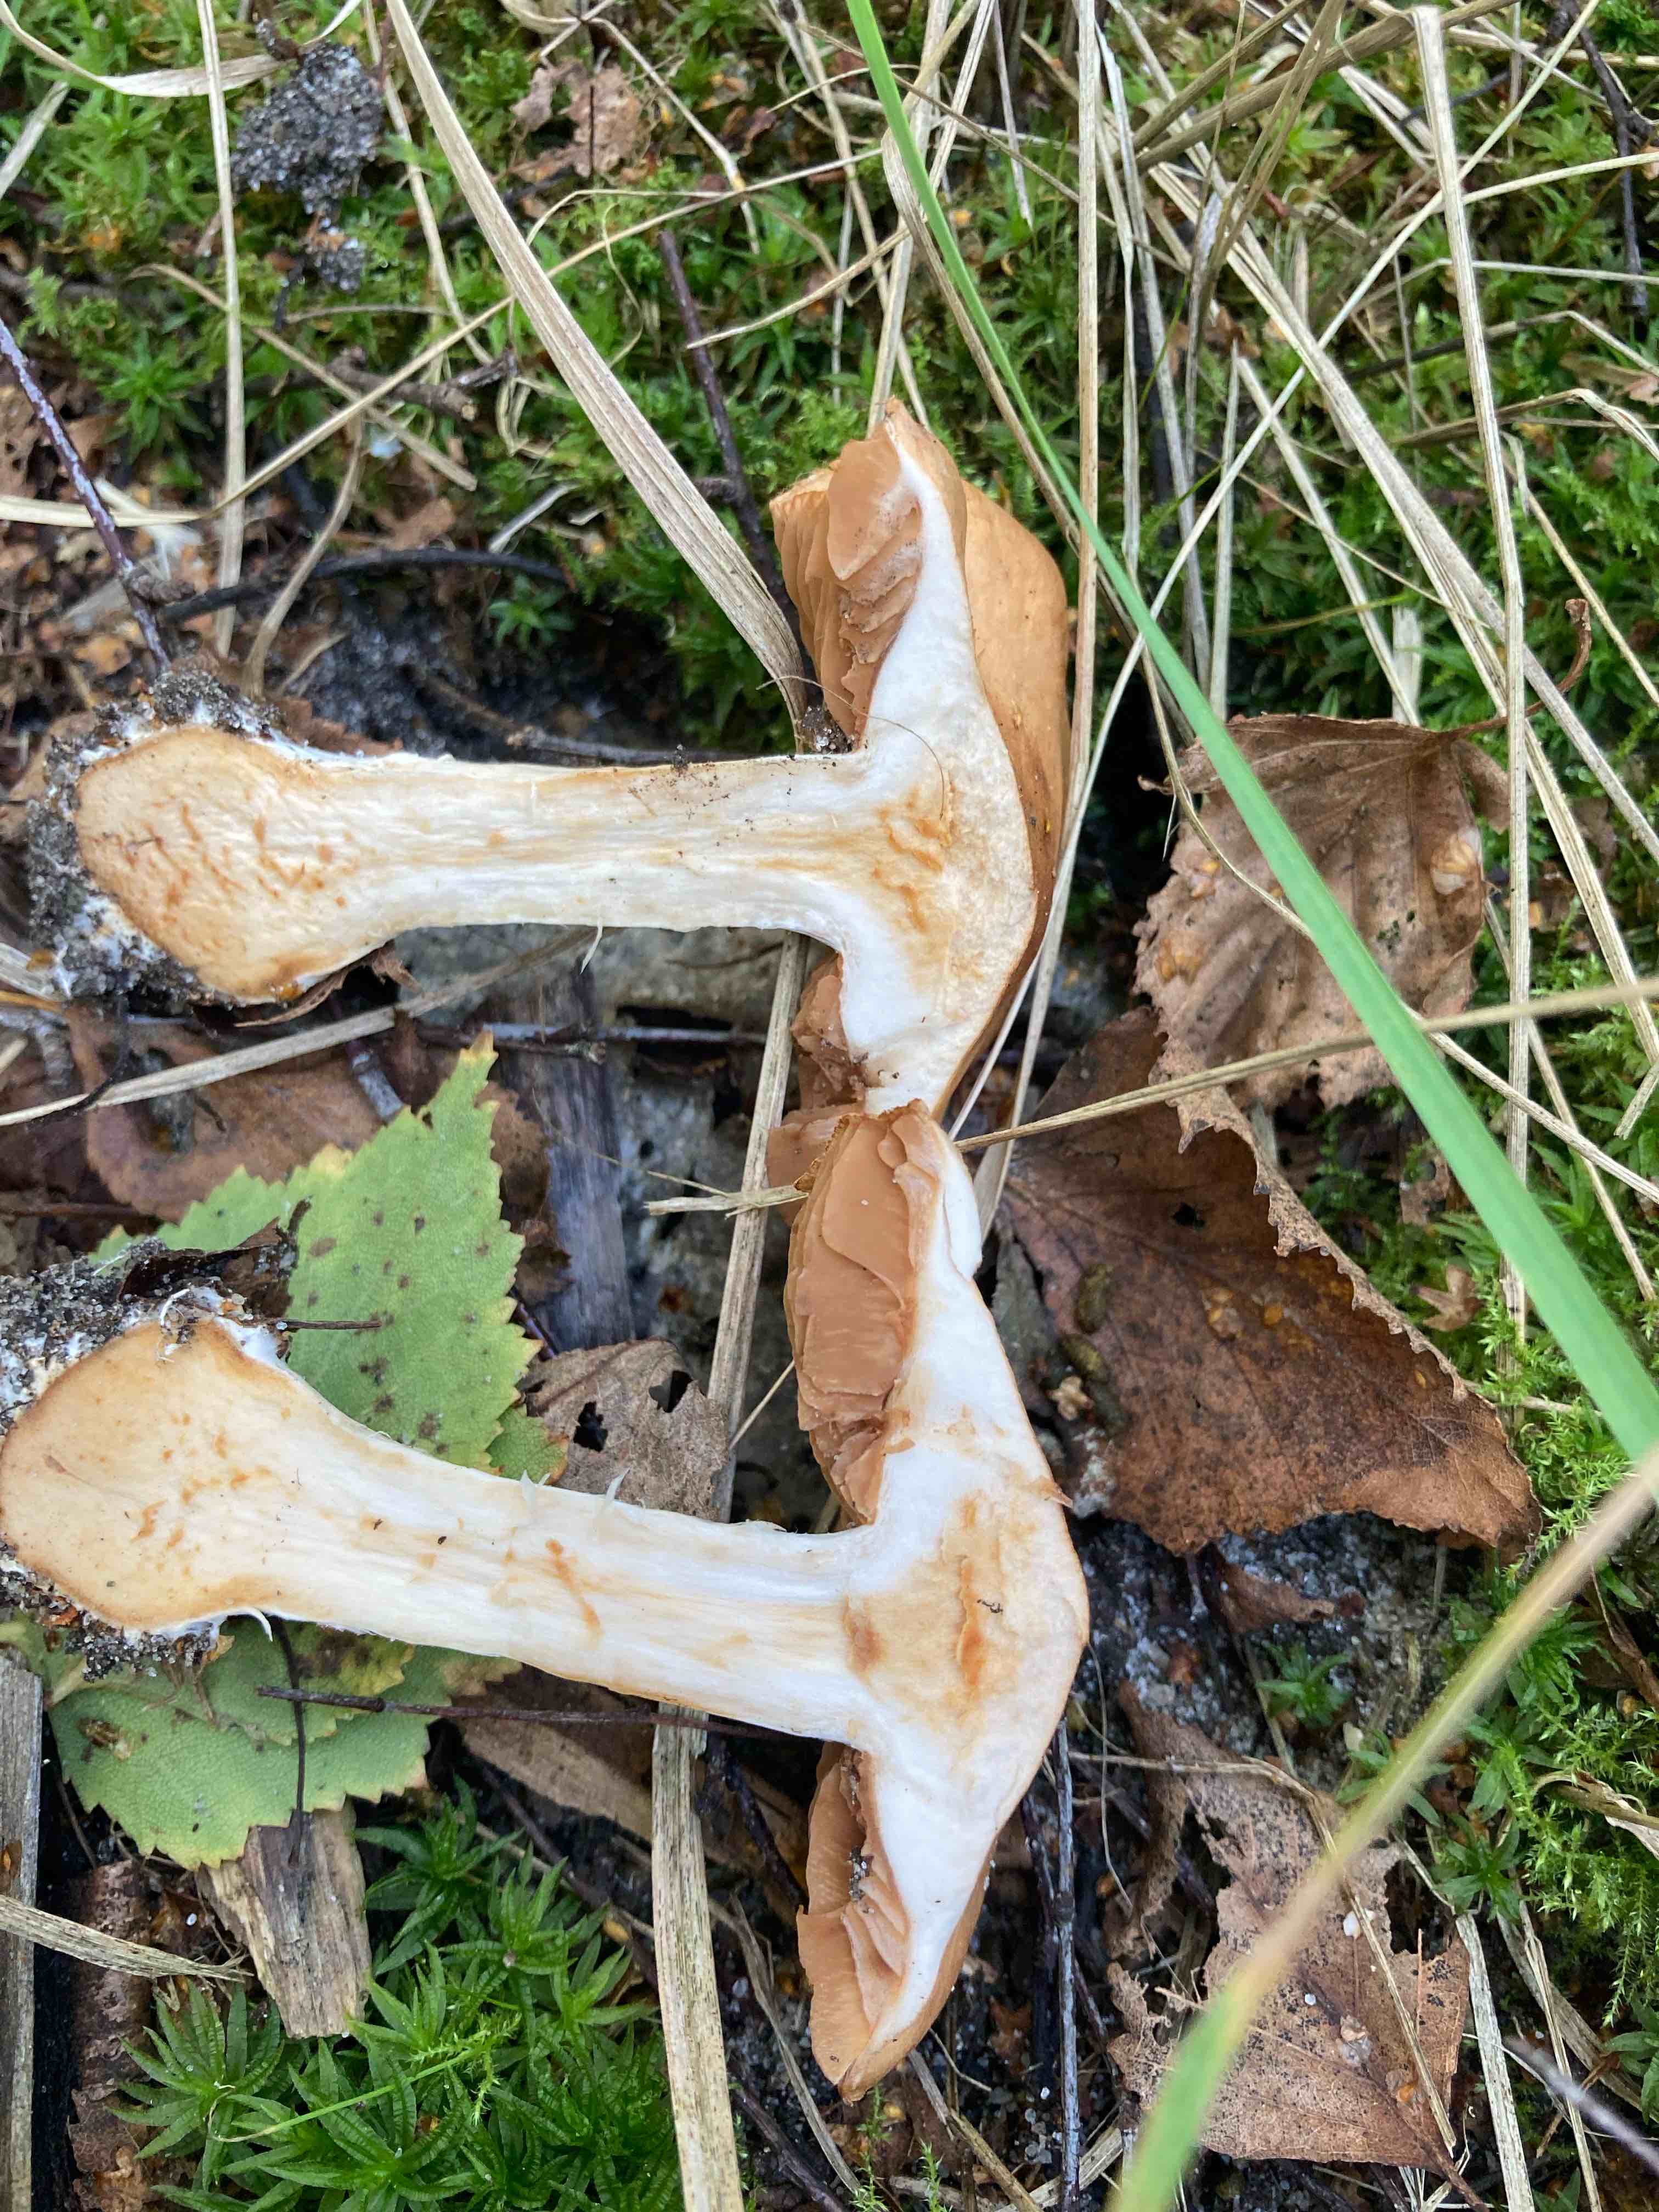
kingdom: Fungi
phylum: Basidiomycota
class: Agaricomycetes
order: Agaricales
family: Cortinariaceae
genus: Cortinarius
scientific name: Cortinarius
